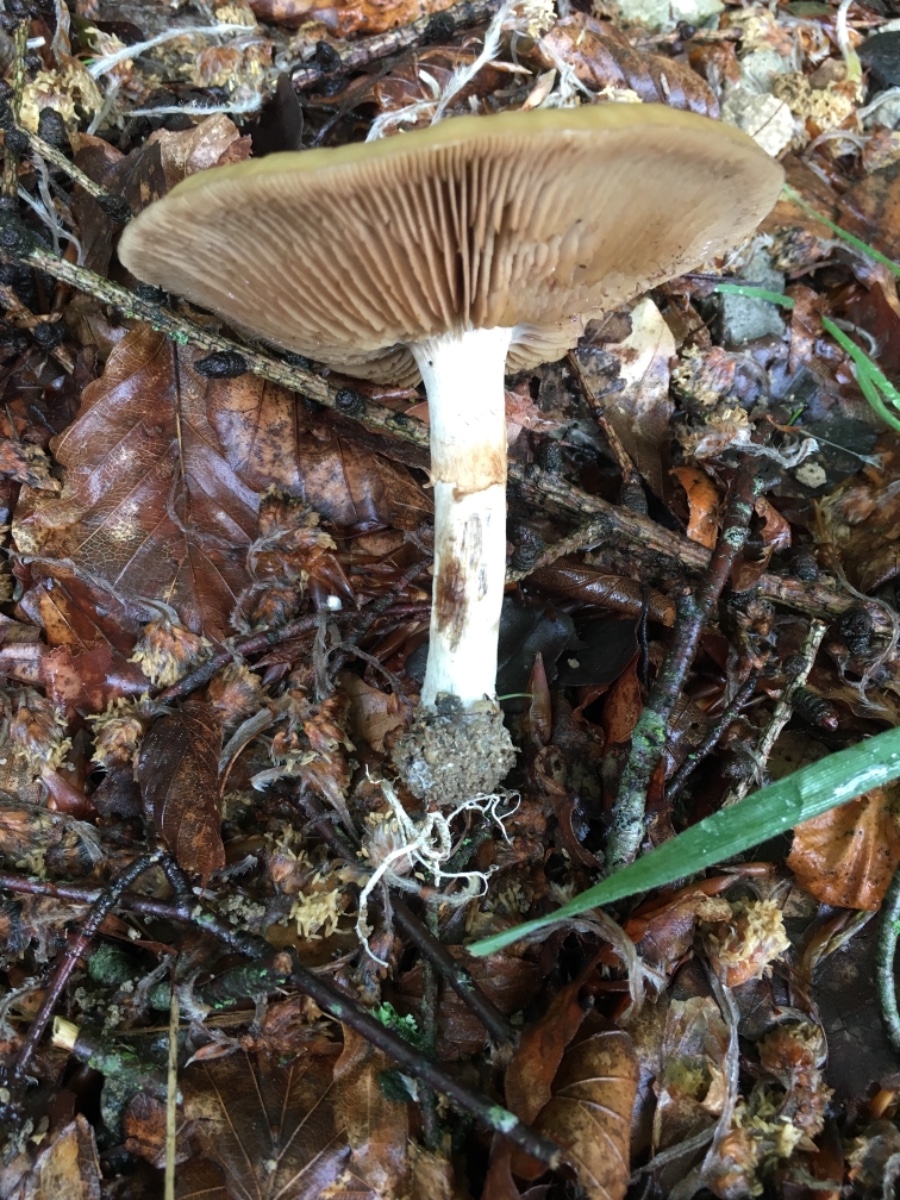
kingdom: Fungi
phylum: Basidiomycota
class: Agaricomycetes
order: Agaricales
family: Strophariaceae
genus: Agrocybe
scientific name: Agrocybe praecox
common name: tidlig agerhat
